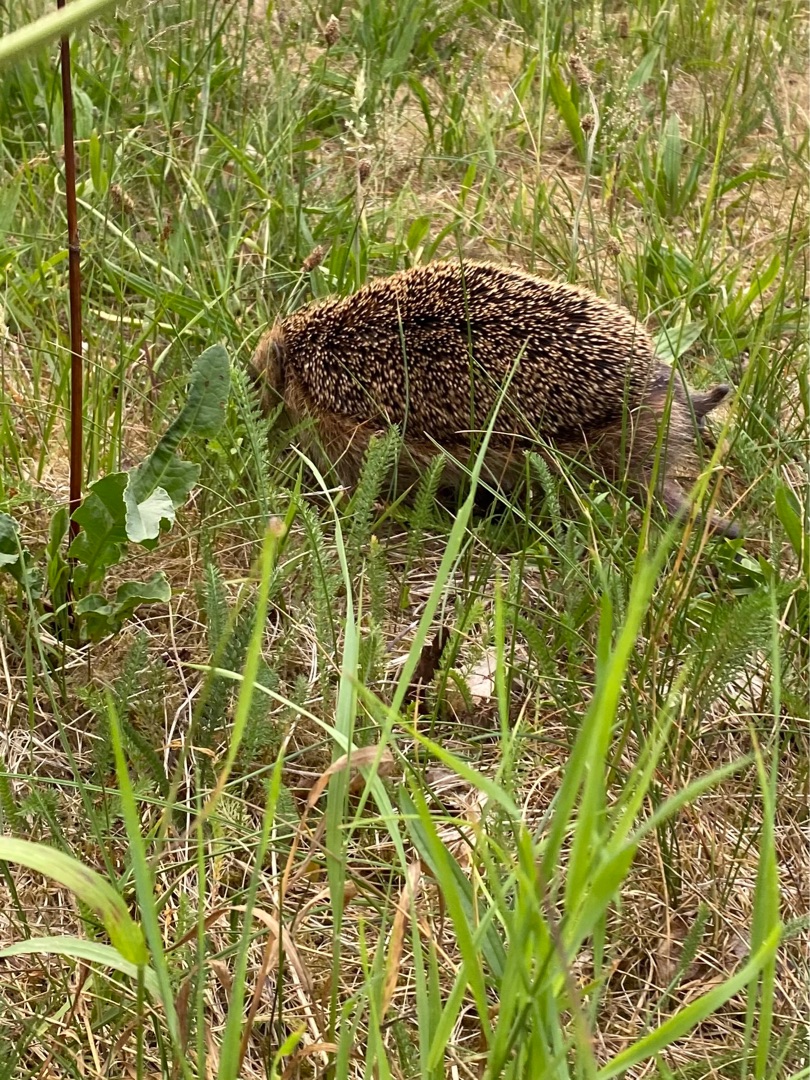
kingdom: Animalia
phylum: Chordata
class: Mammalia
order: Erinaceomorpha
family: Erinaceidae
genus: Erinaceus
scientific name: Erinaceus europaeus
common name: Pindsvin
